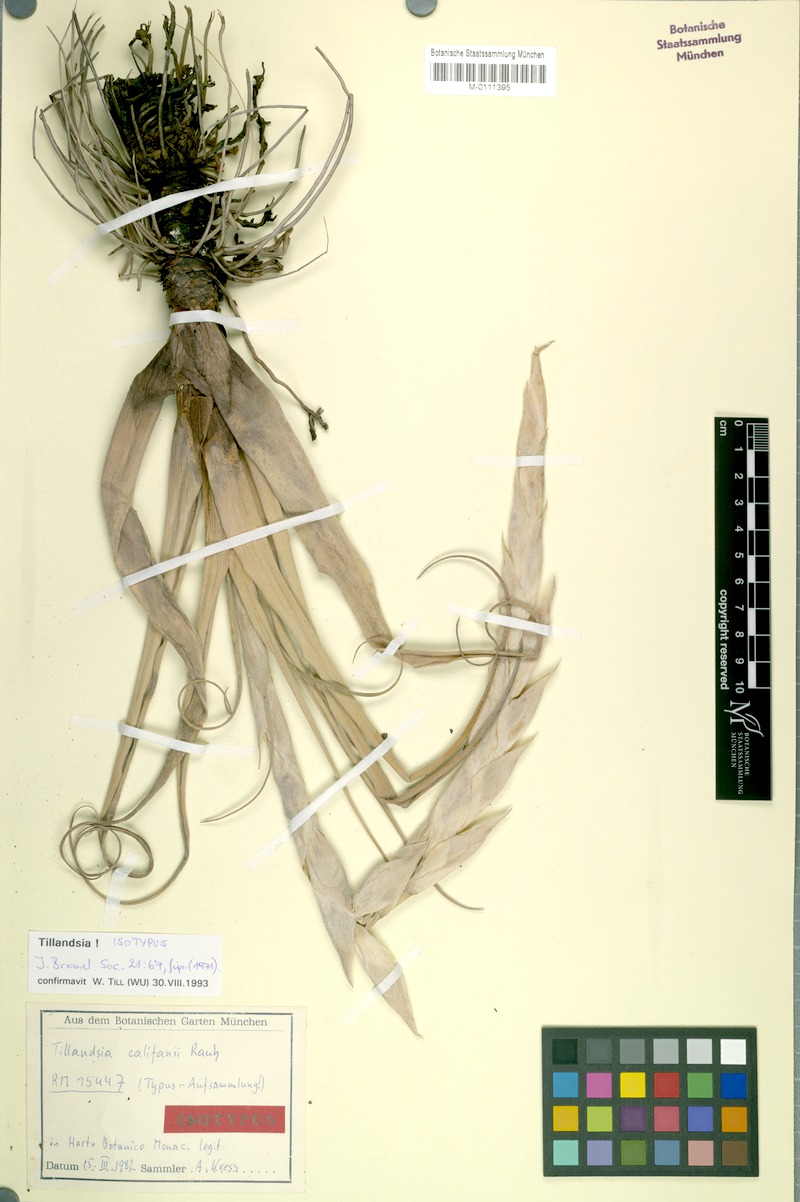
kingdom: Plantae
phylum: Tracheophyta
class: Liliopsida
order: Poales
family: Bromeliaceae
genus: Tillandsia
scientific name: Tillandsia califani
